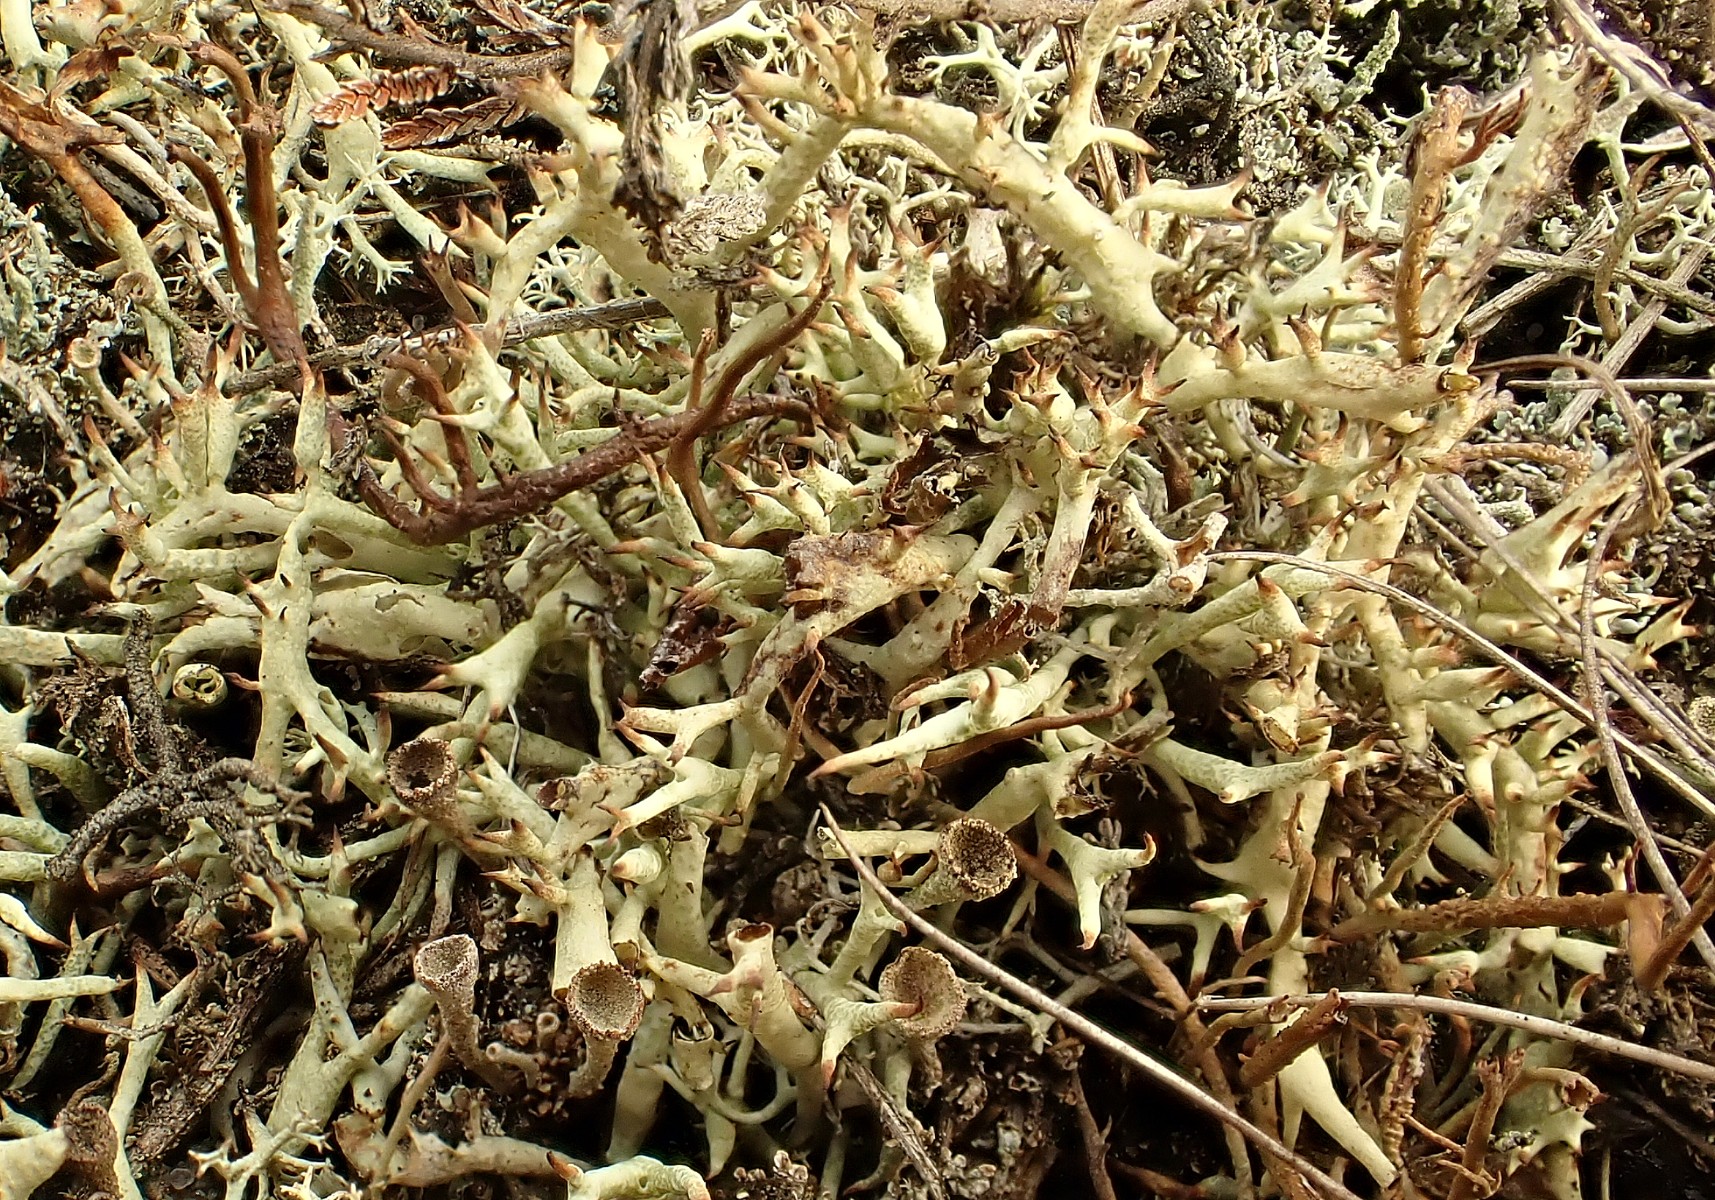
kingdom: Fungi
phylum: Ascomycota
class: Lecanoromycetes
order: Lecanorales
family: Cladoniaceae
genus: Cladonia
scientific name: Cladonia uncialis
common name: pigget bægerlav
